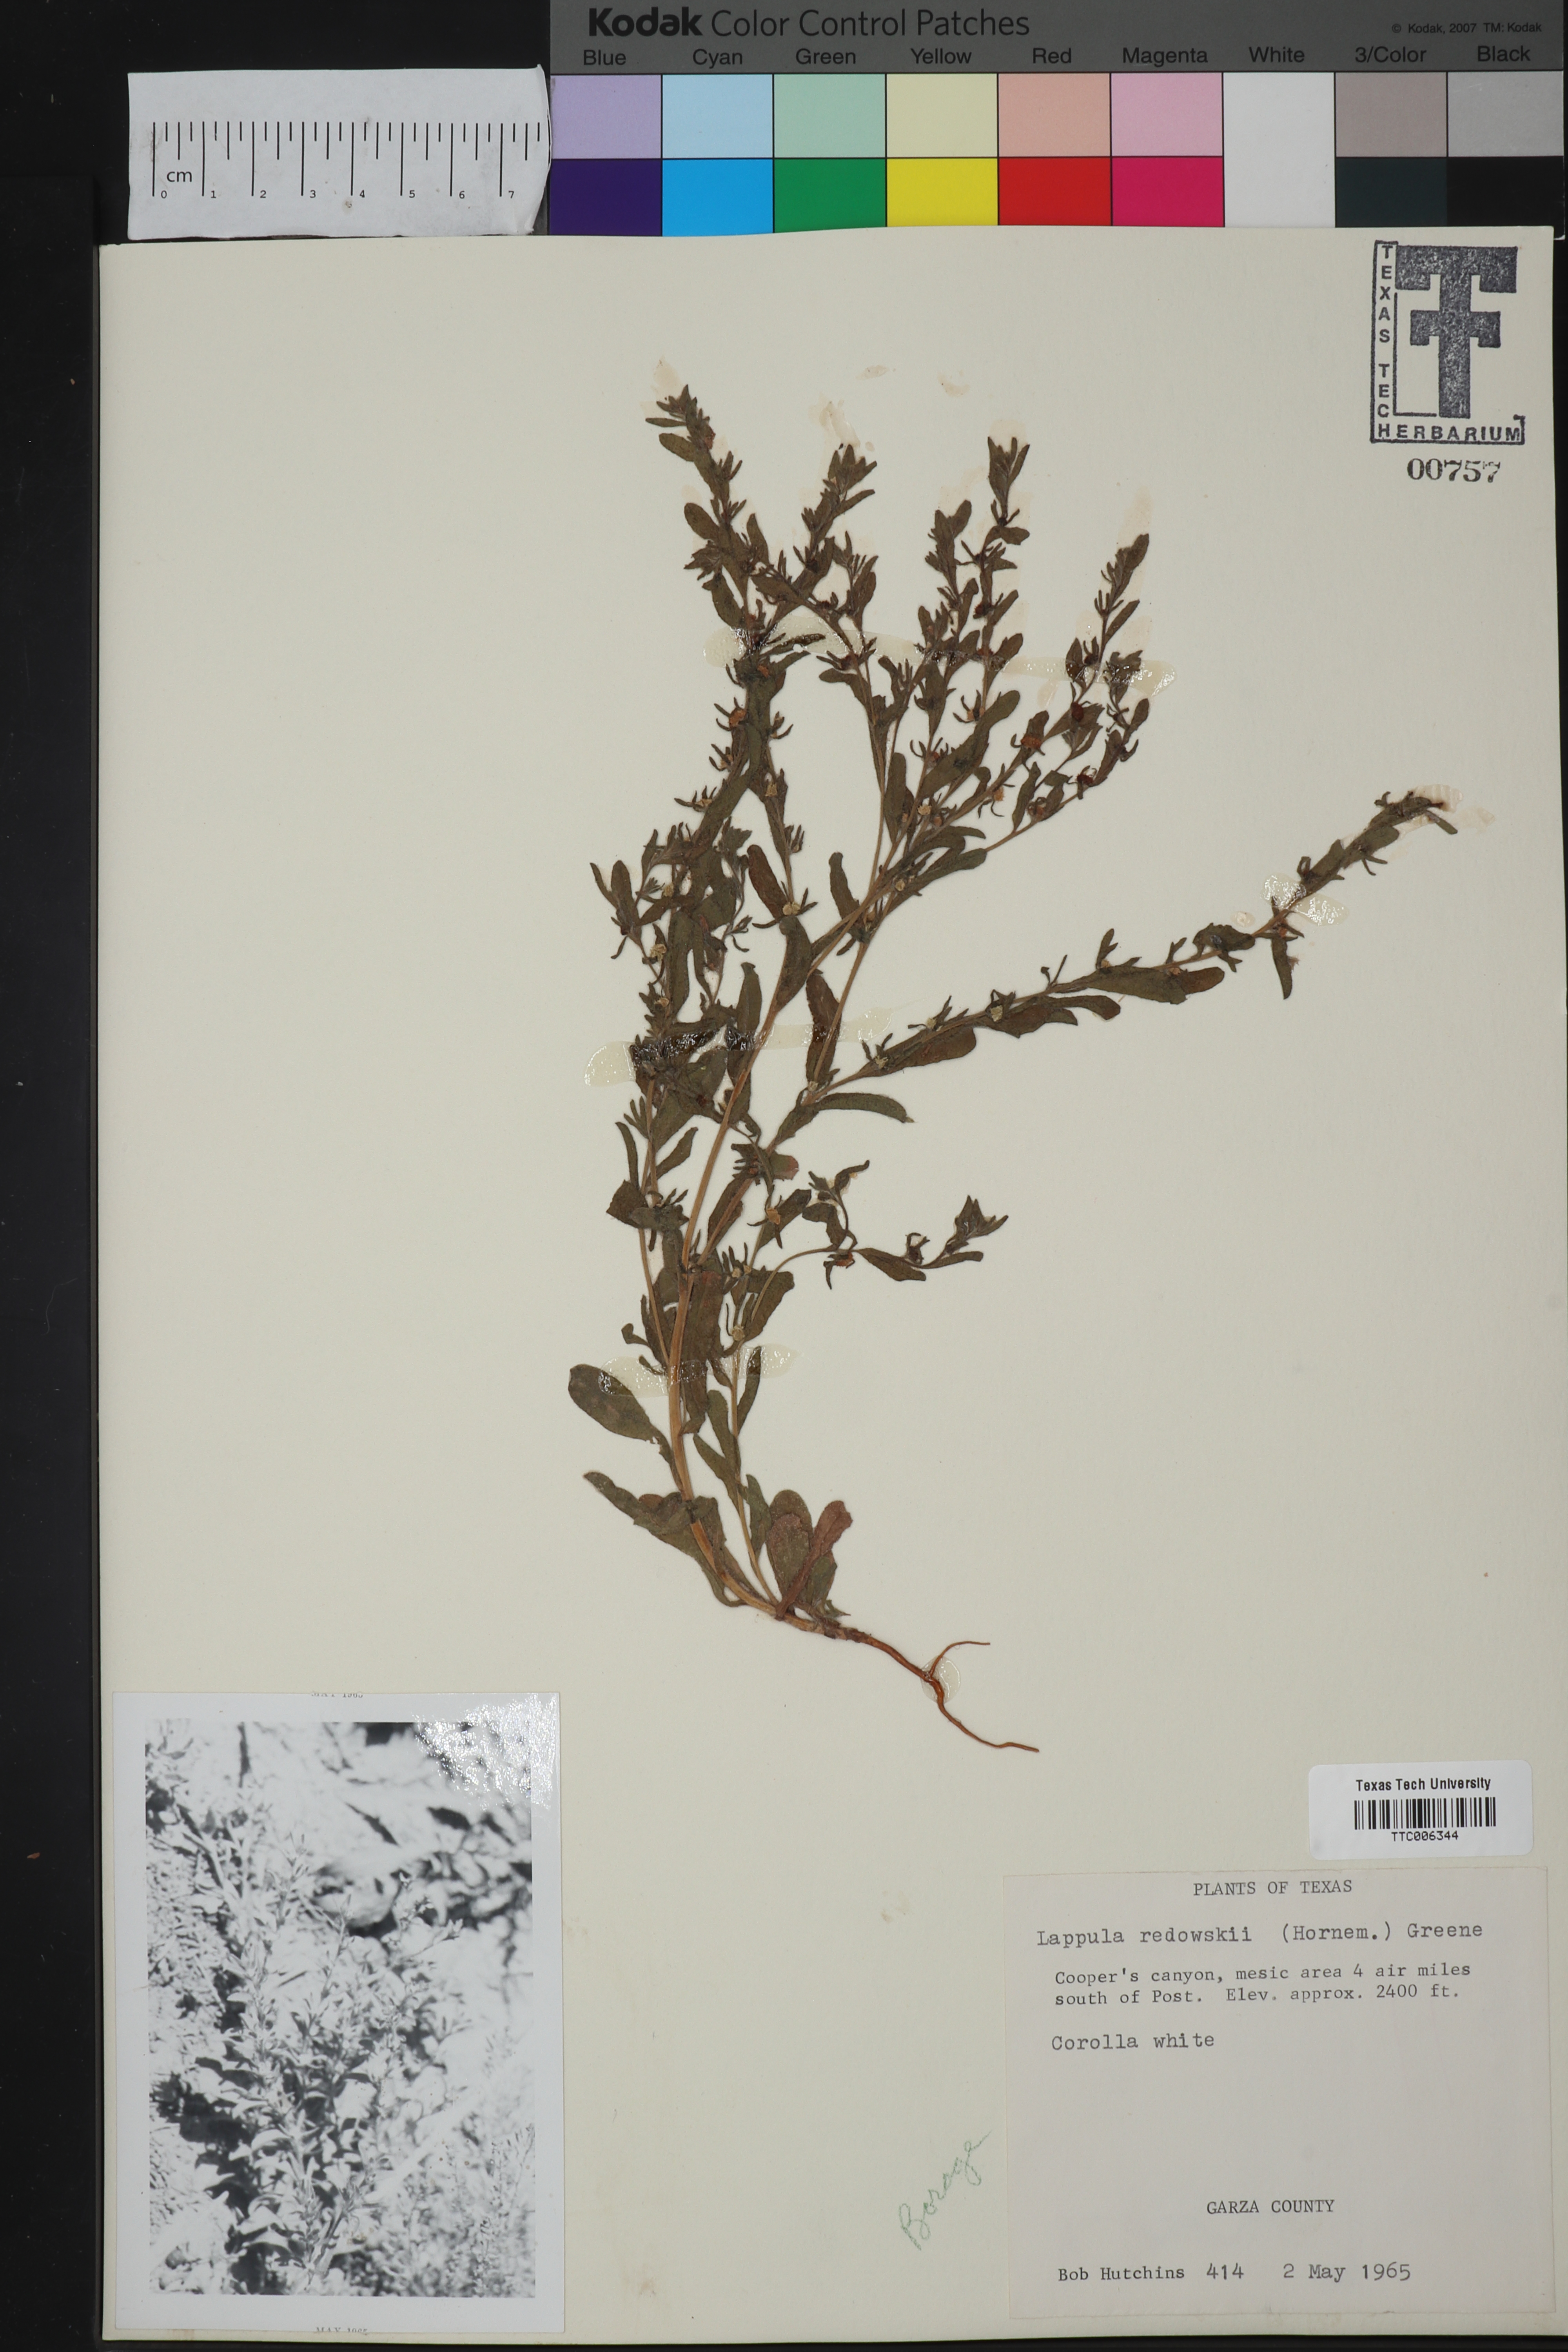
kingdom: Plantae
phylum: Tracheophyta
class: Magnoliopsida
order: Boraginales
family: Boraginaceae
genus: Lappula
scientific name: Lappula redowskii
